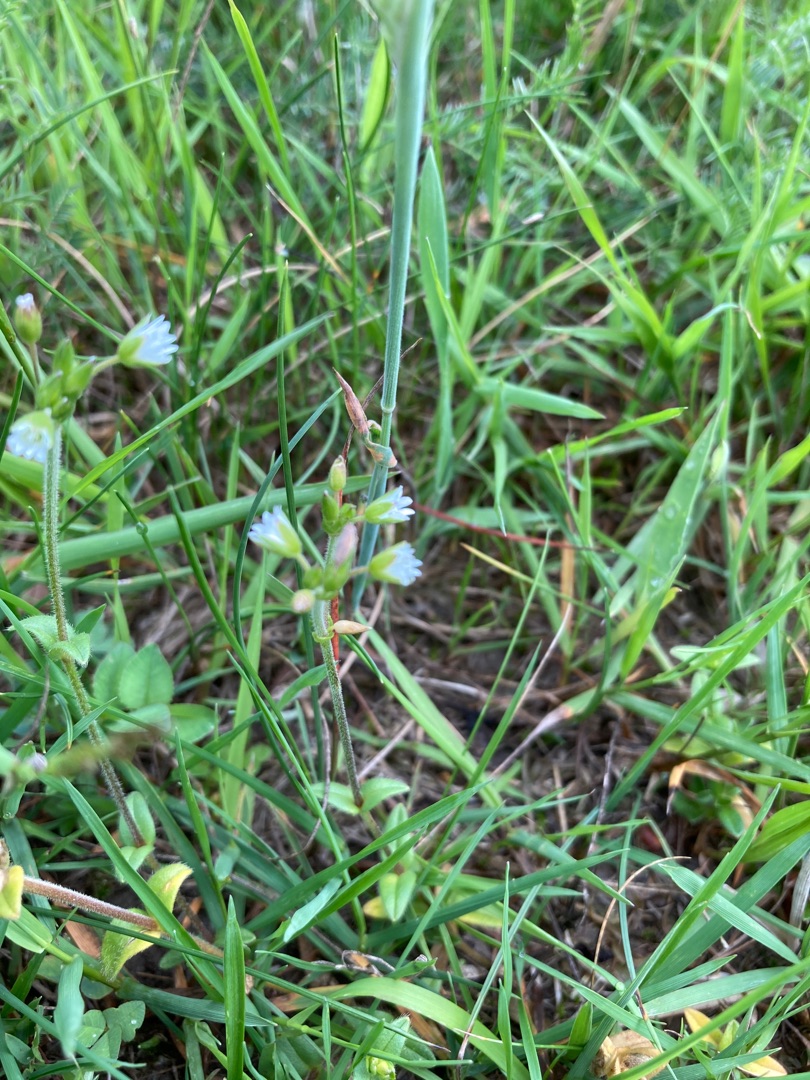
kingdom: Plantae
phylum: Tracheophyta
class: Magnoliopsida
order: Caryophyllales
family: Caryophyllaceae
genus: Cerastium
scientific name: Cerastium fontanum
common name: Almindelig hønsetarm
